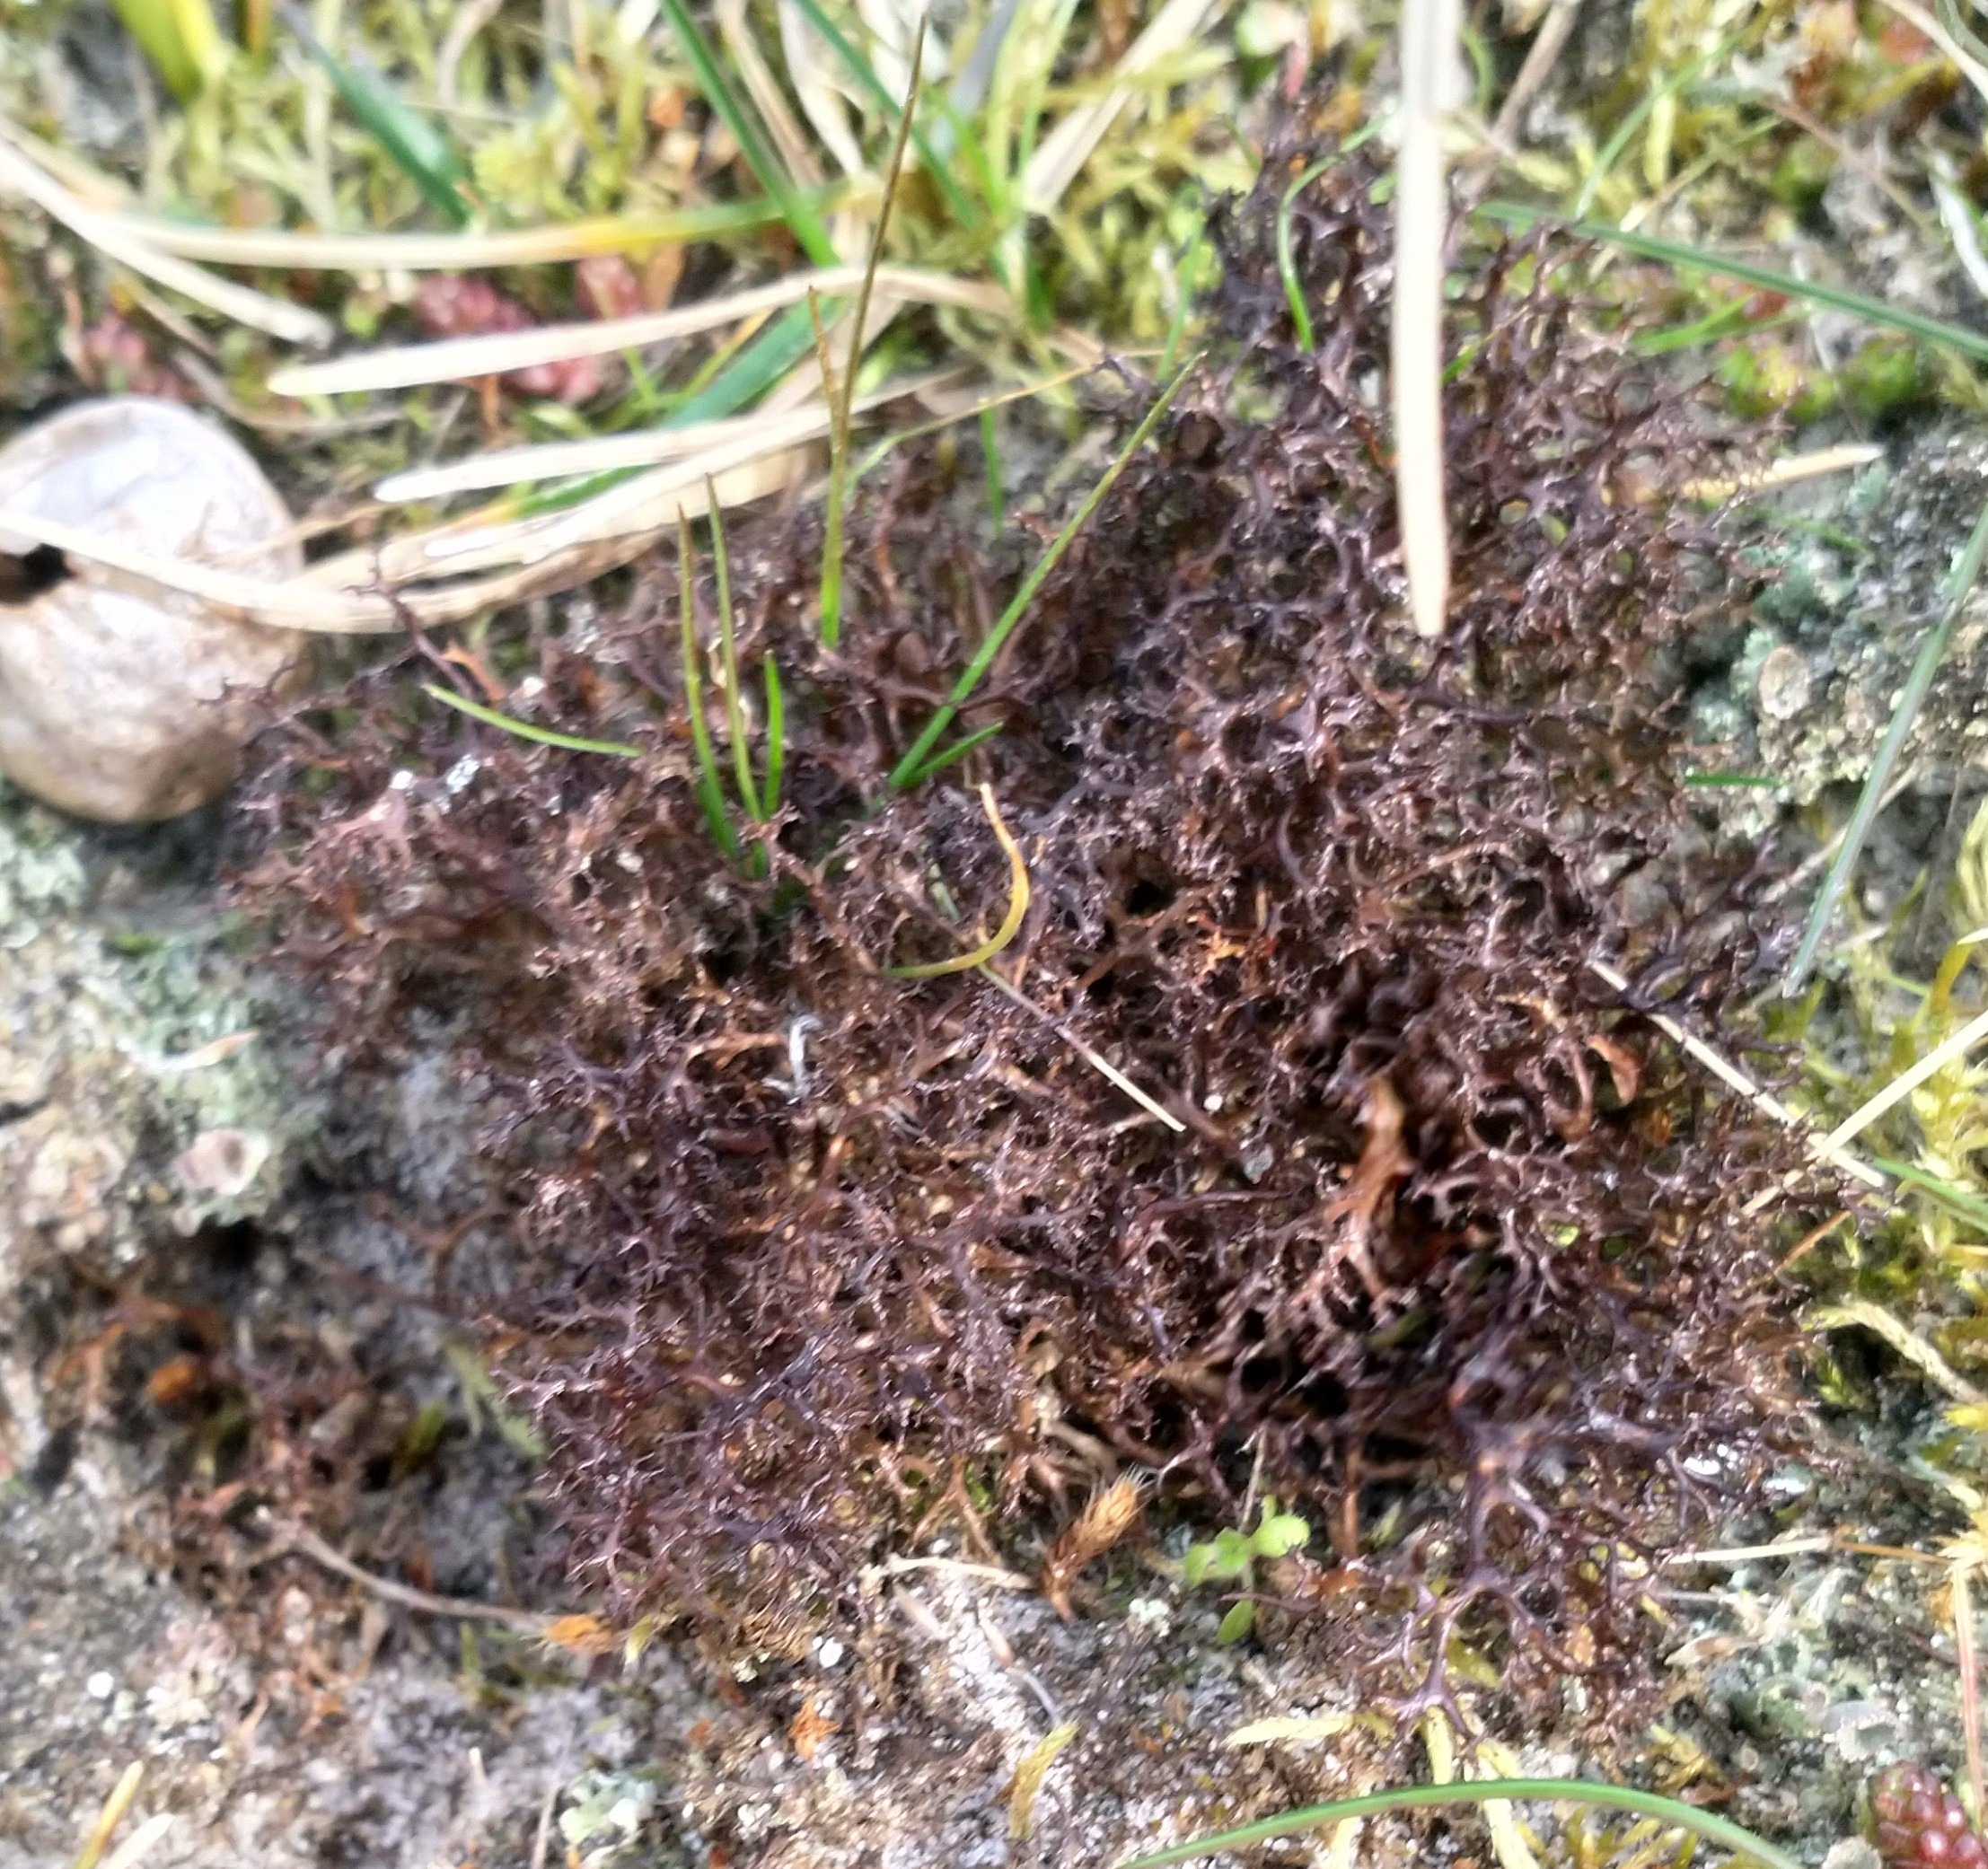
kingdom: Fungi
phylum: Ascomycota
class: Lecanoromycetes
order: Lecanorales
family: Parmeliaceae
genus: Cetraria
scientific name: Cetraria aculeata
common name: Grubet tjørnelav
